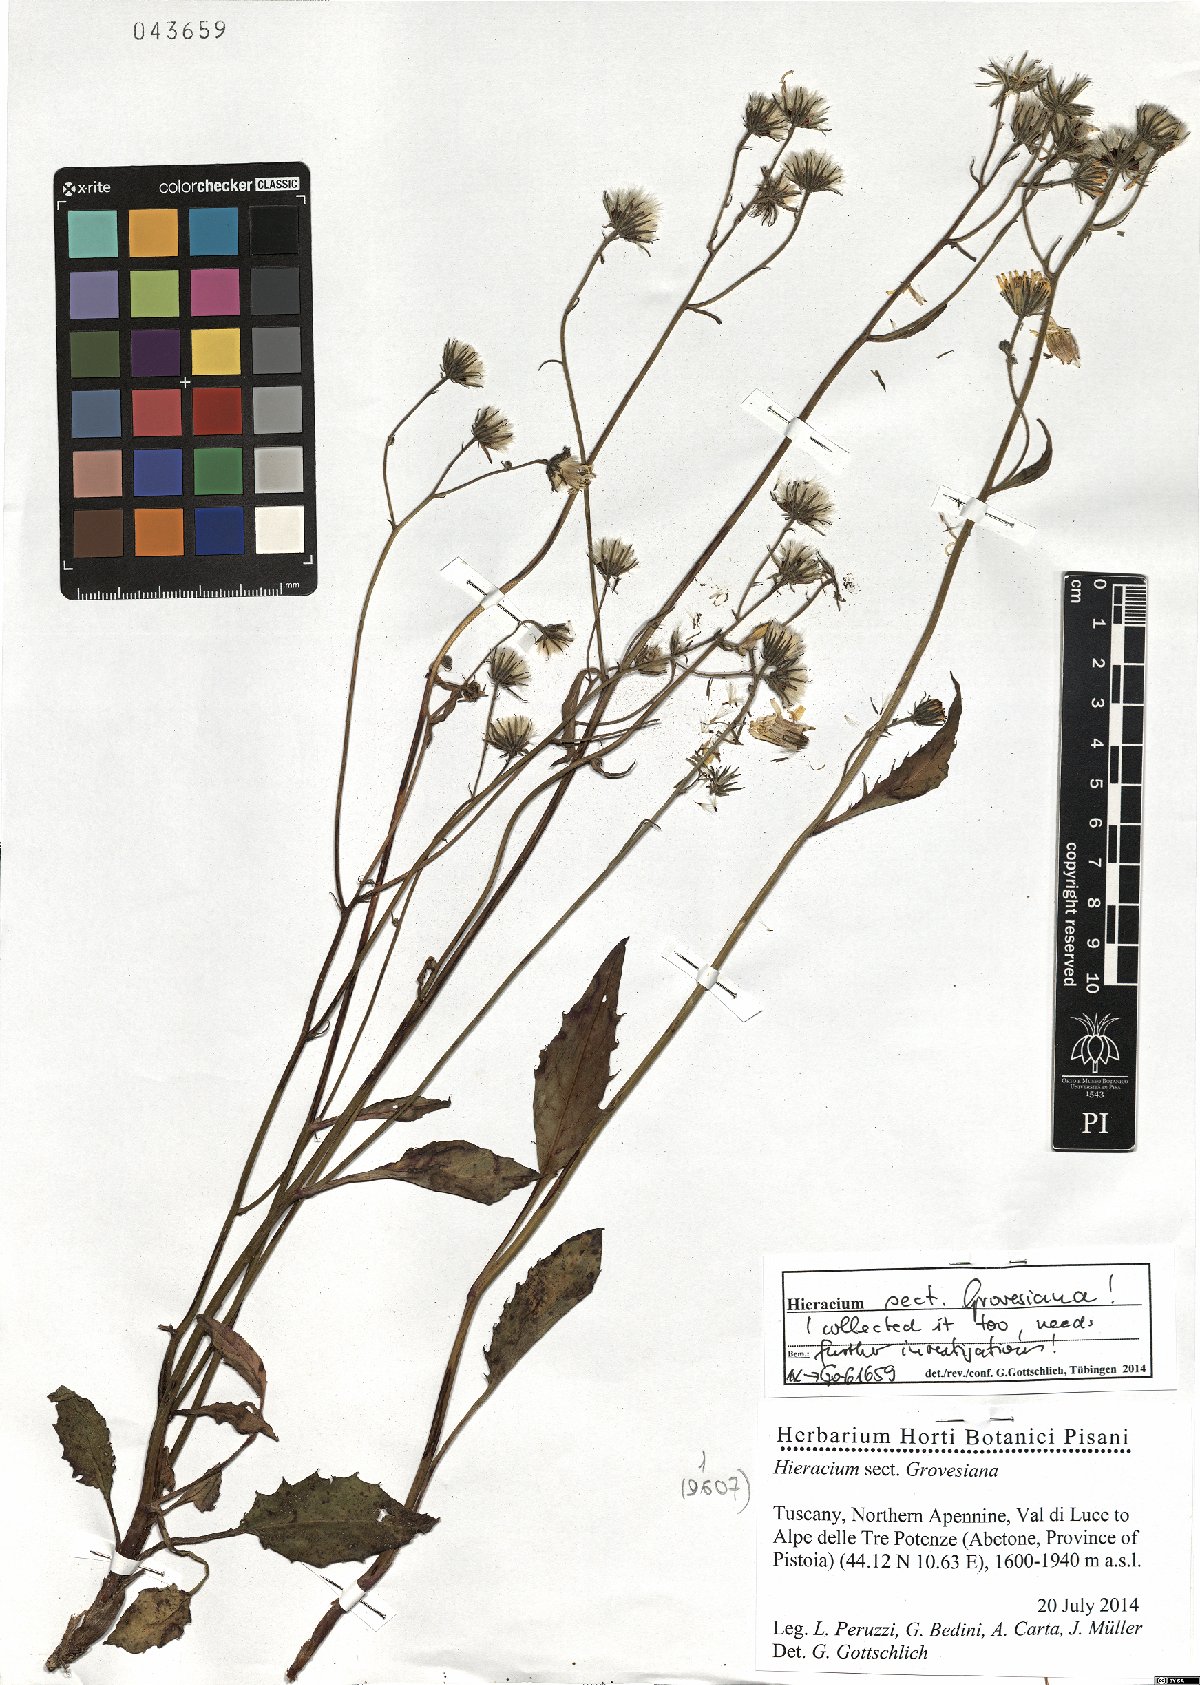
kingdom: Plantae
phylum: Tracheophyta
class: Magnoliopsida
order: Asterales
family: Asteraceae
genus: Hieracium
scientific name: Hieracium
